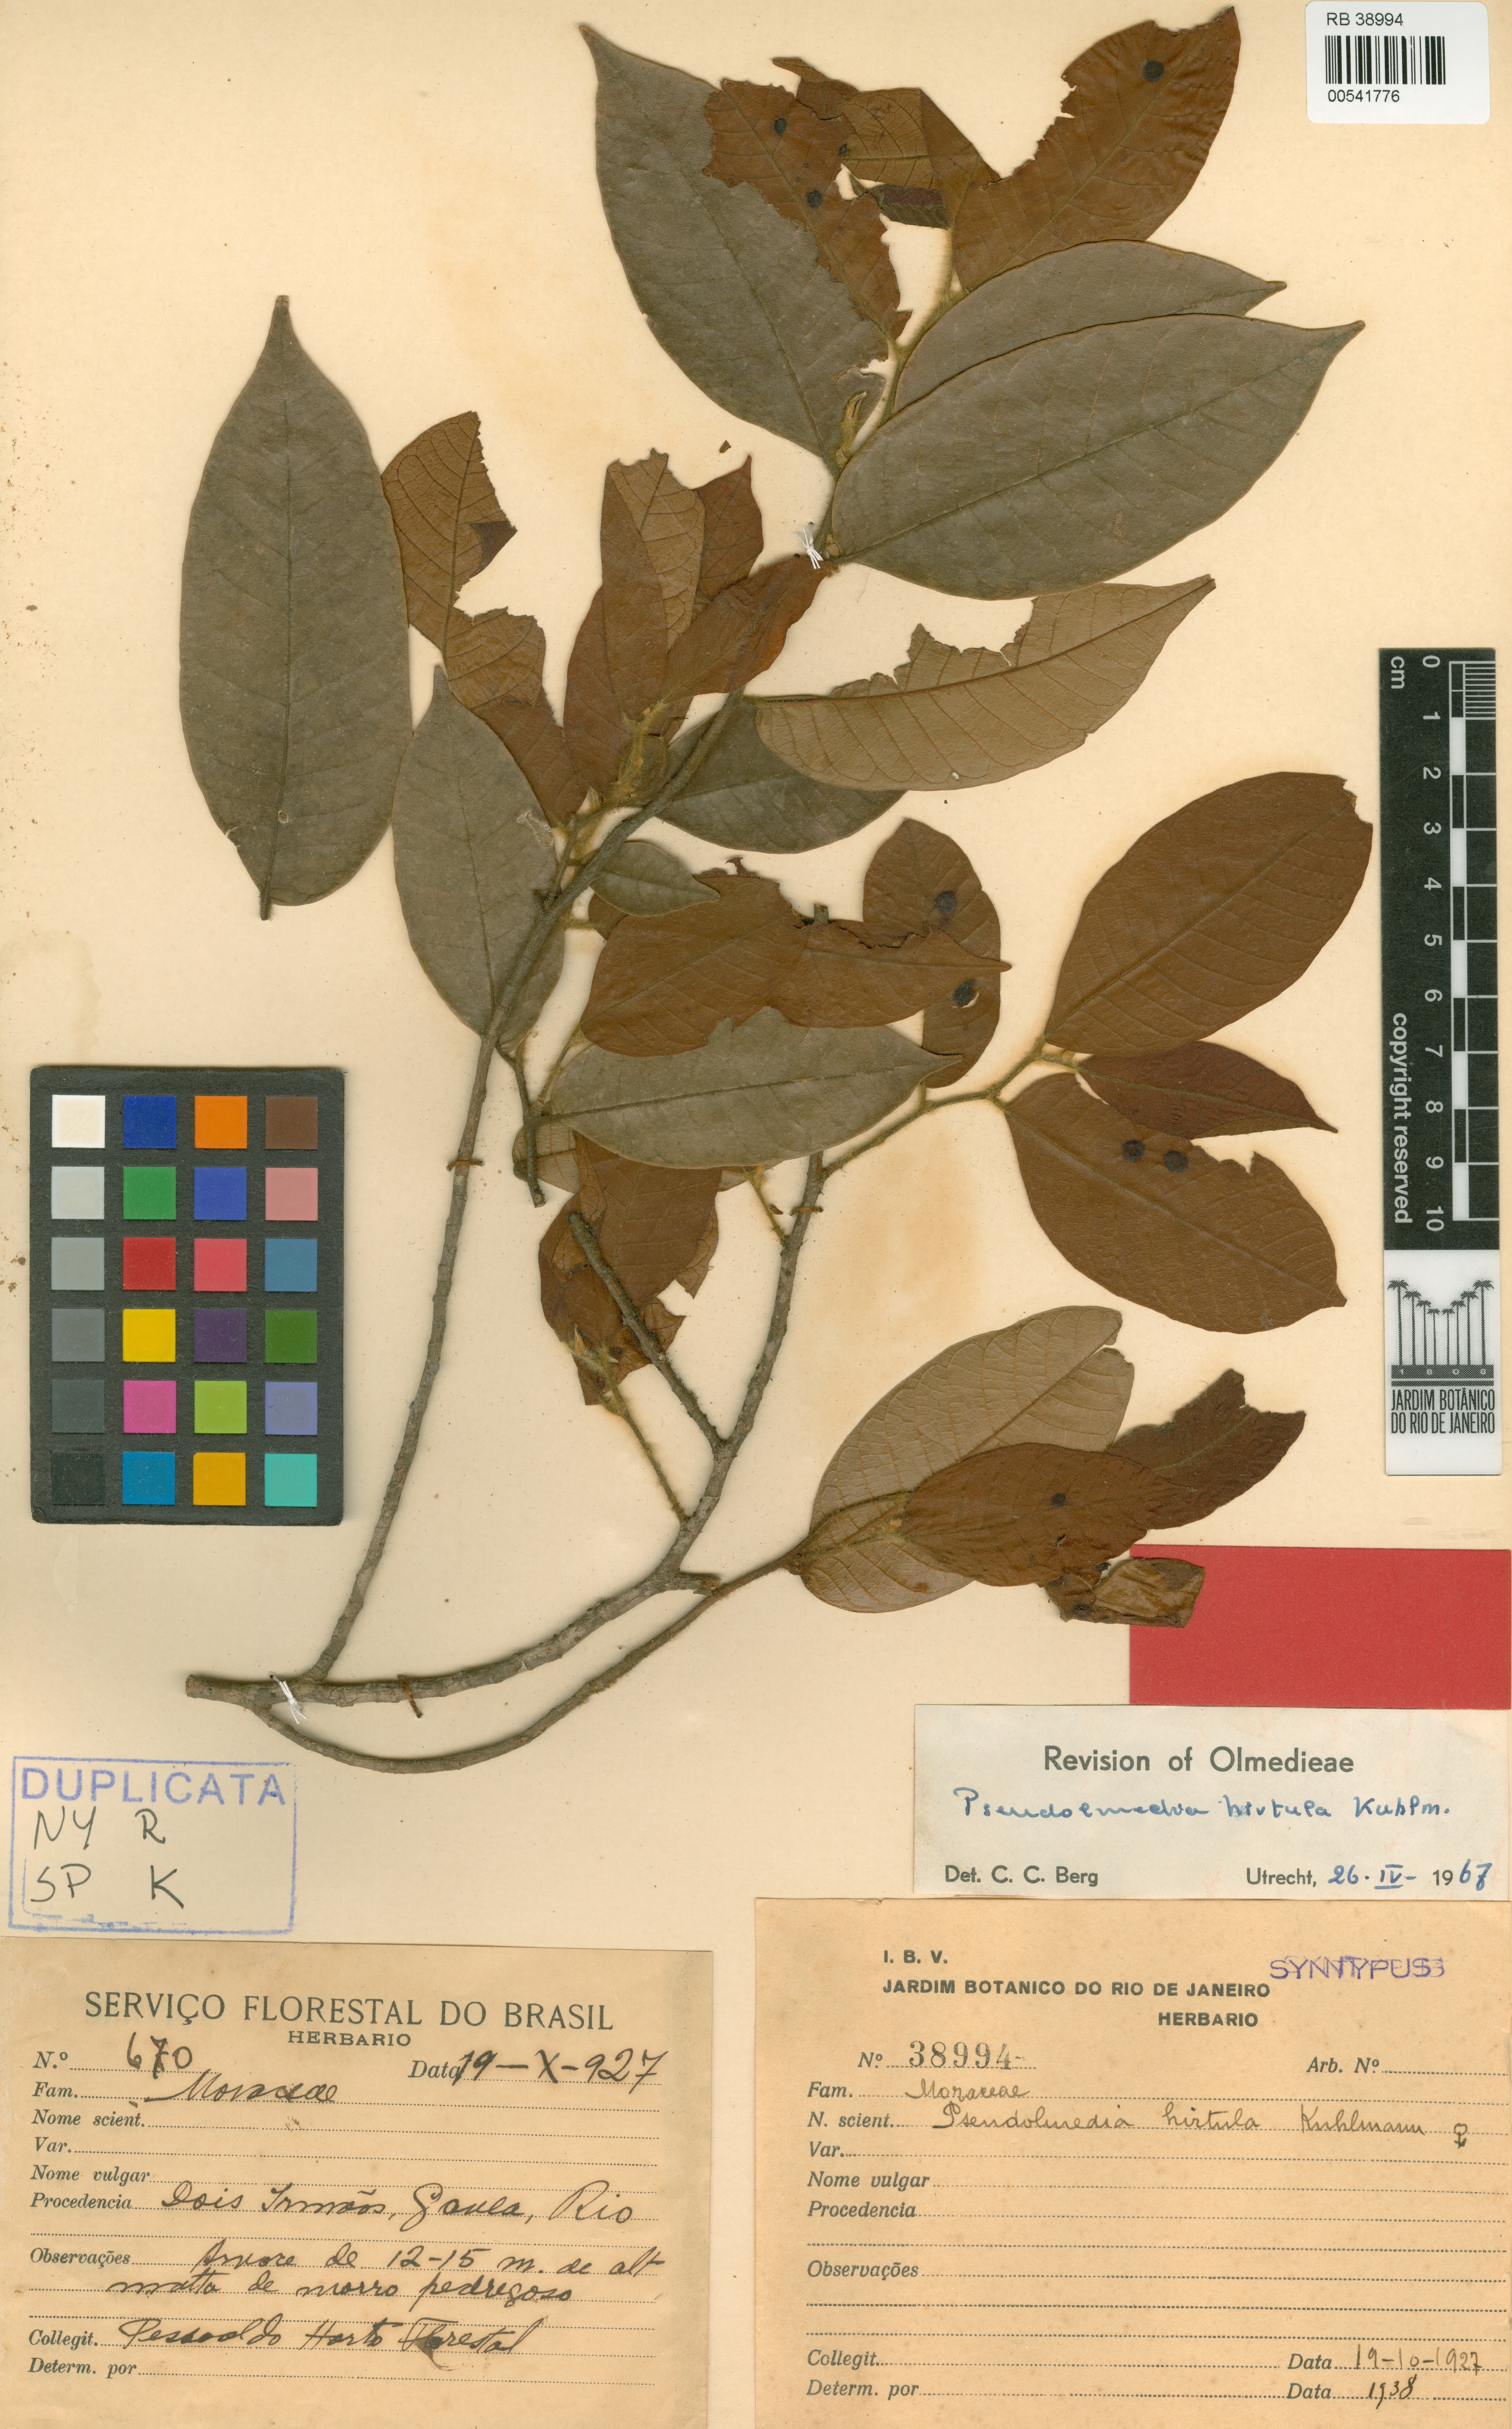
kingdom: Plantae
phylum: Tracheophyta
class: Magnoliopsida
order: Rosales
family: Moraceae
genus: Pseudolmedia
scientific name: Pseudolmedia hirtula
